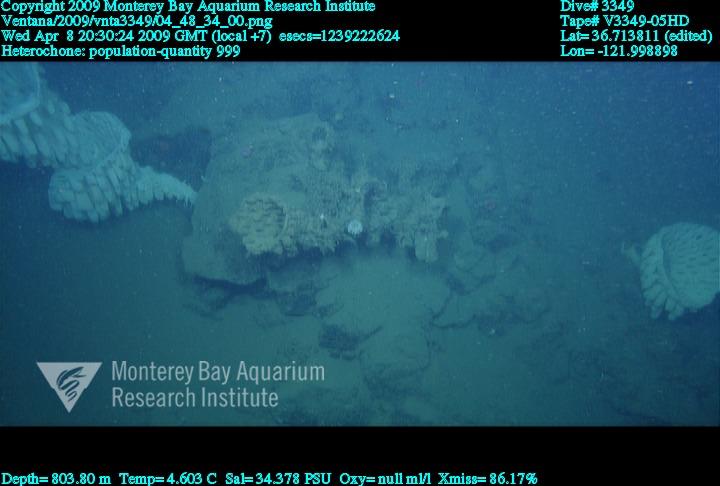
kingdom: Animalia
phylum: Porifera
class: Hexactinellida
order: Sceptrulophora
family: Aphrocallistidae
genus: Heterochone
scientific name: Heterochone
